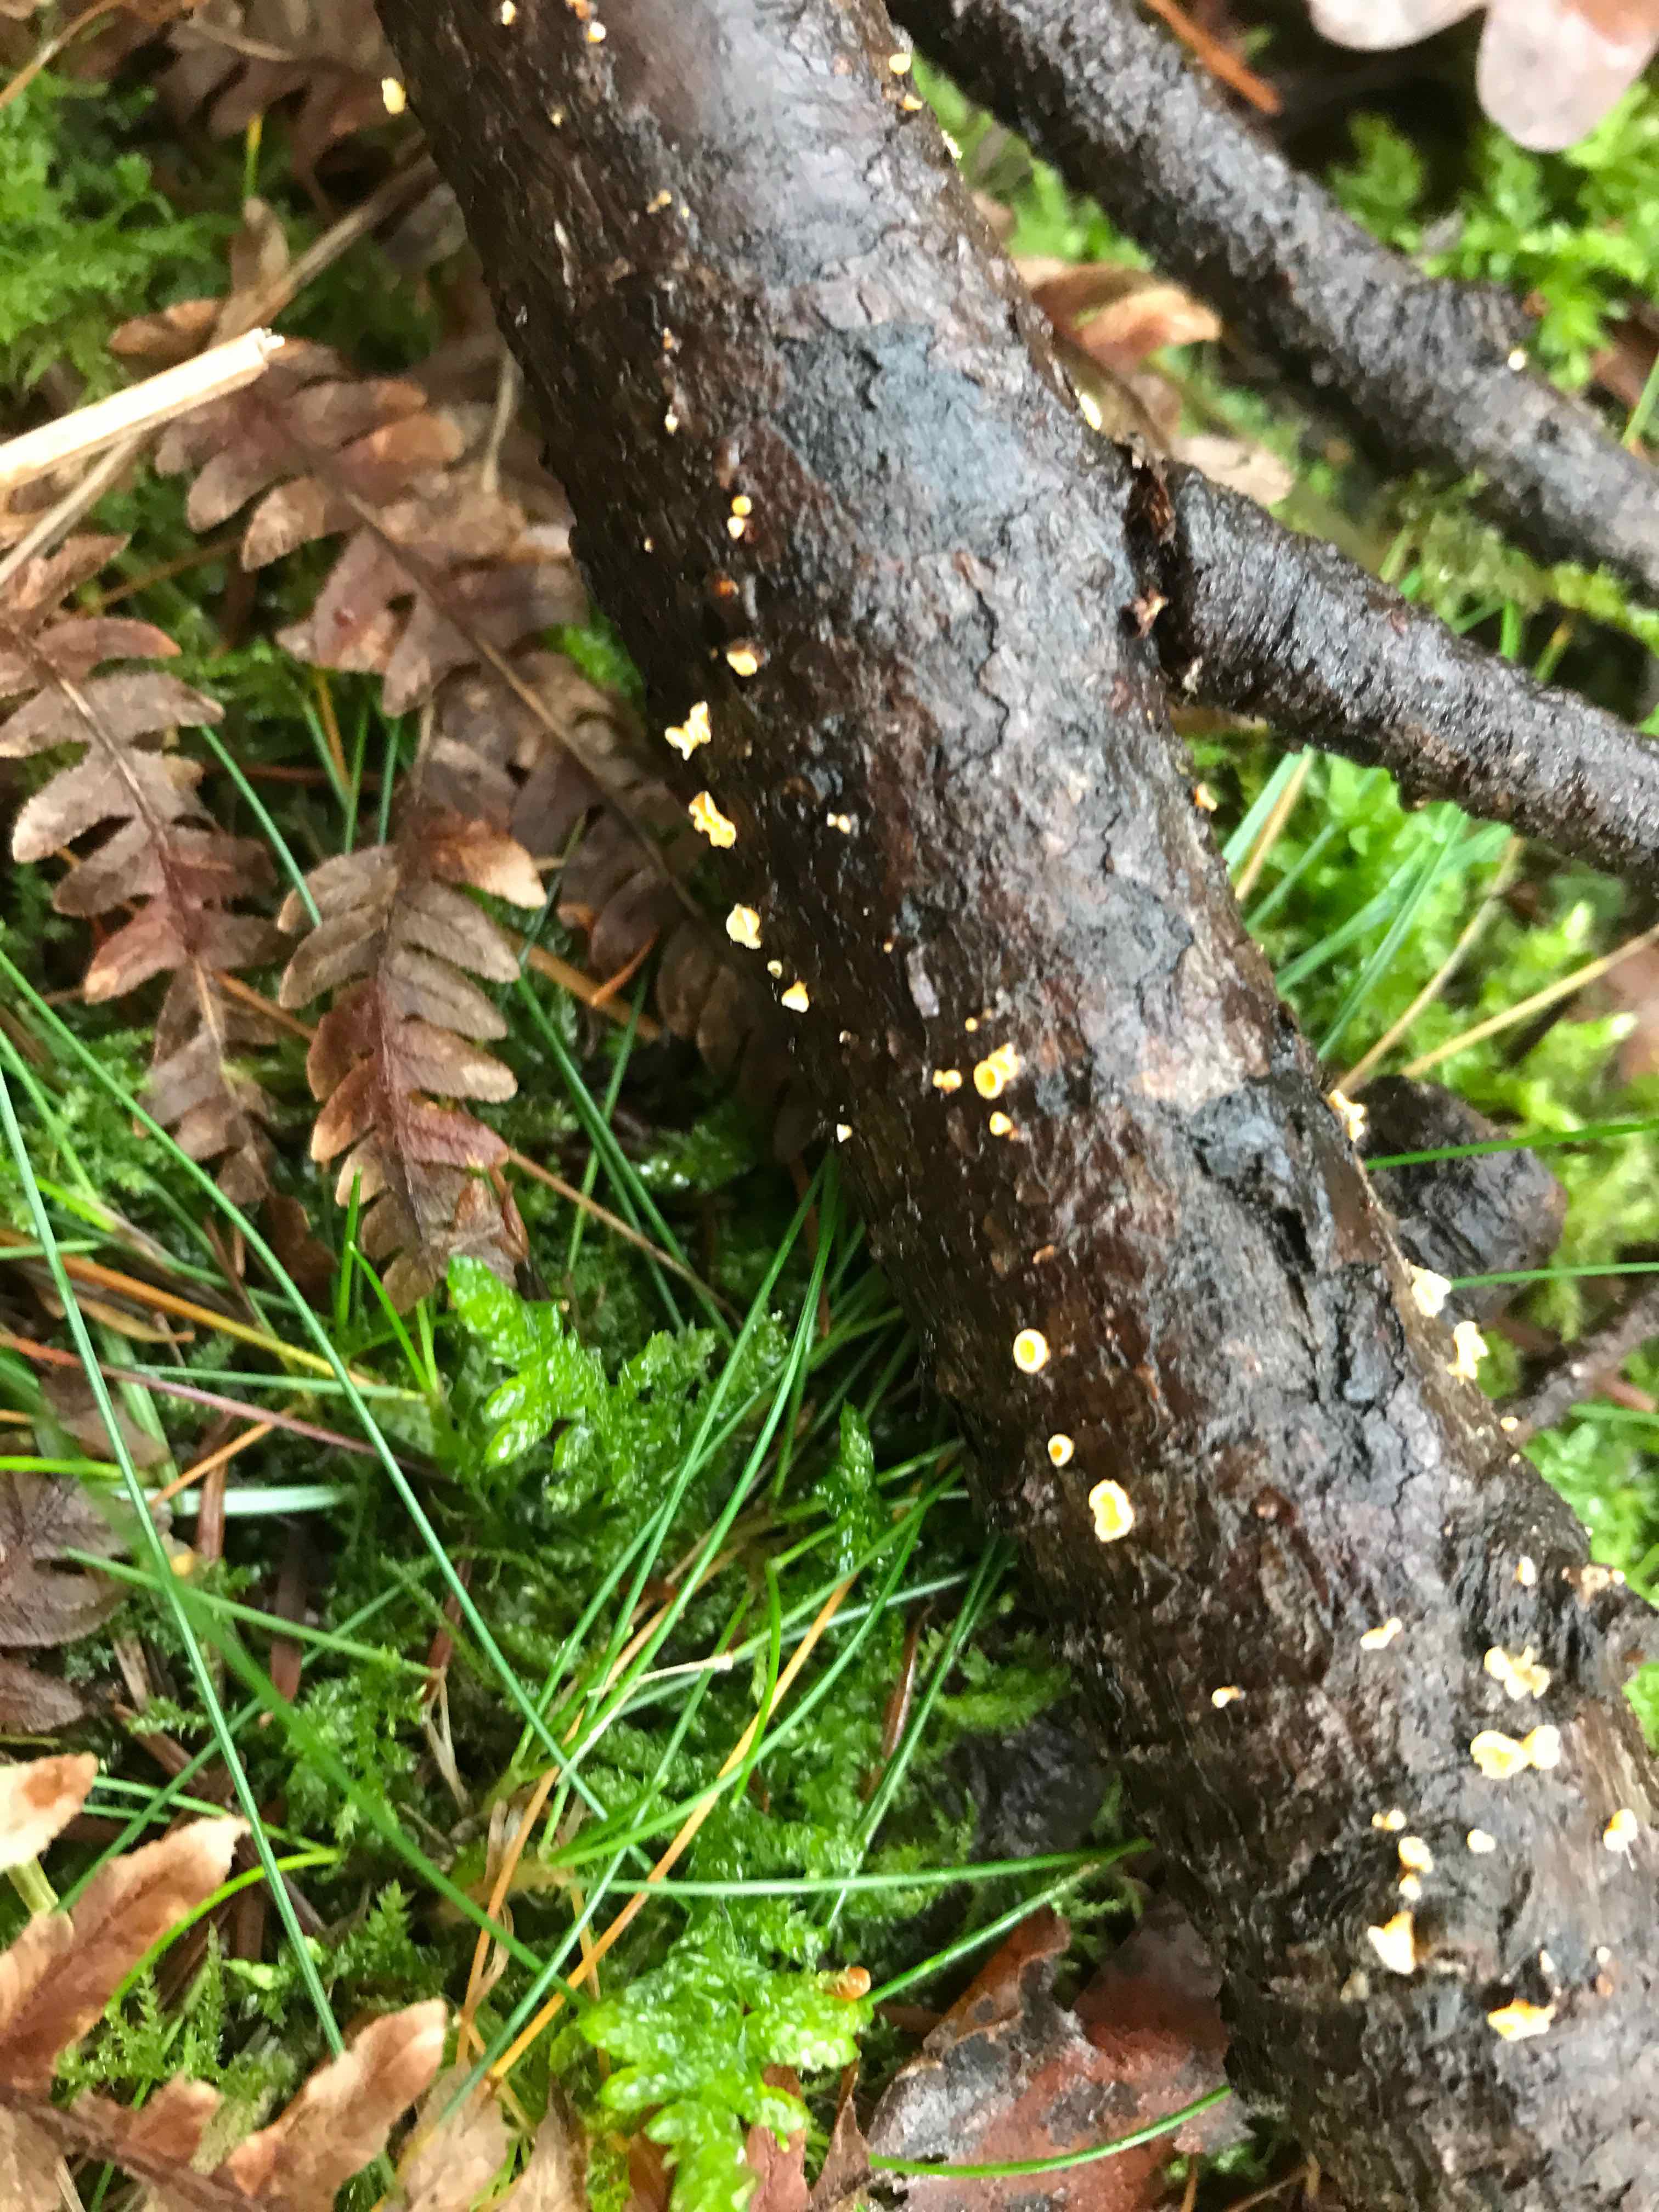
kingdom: Fungi
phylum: Ascomycota
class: Leotiomycetes
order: Helotiales
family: Lachnaceae
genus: Lachnellula
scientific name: Lachnellula
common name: frynseskive
